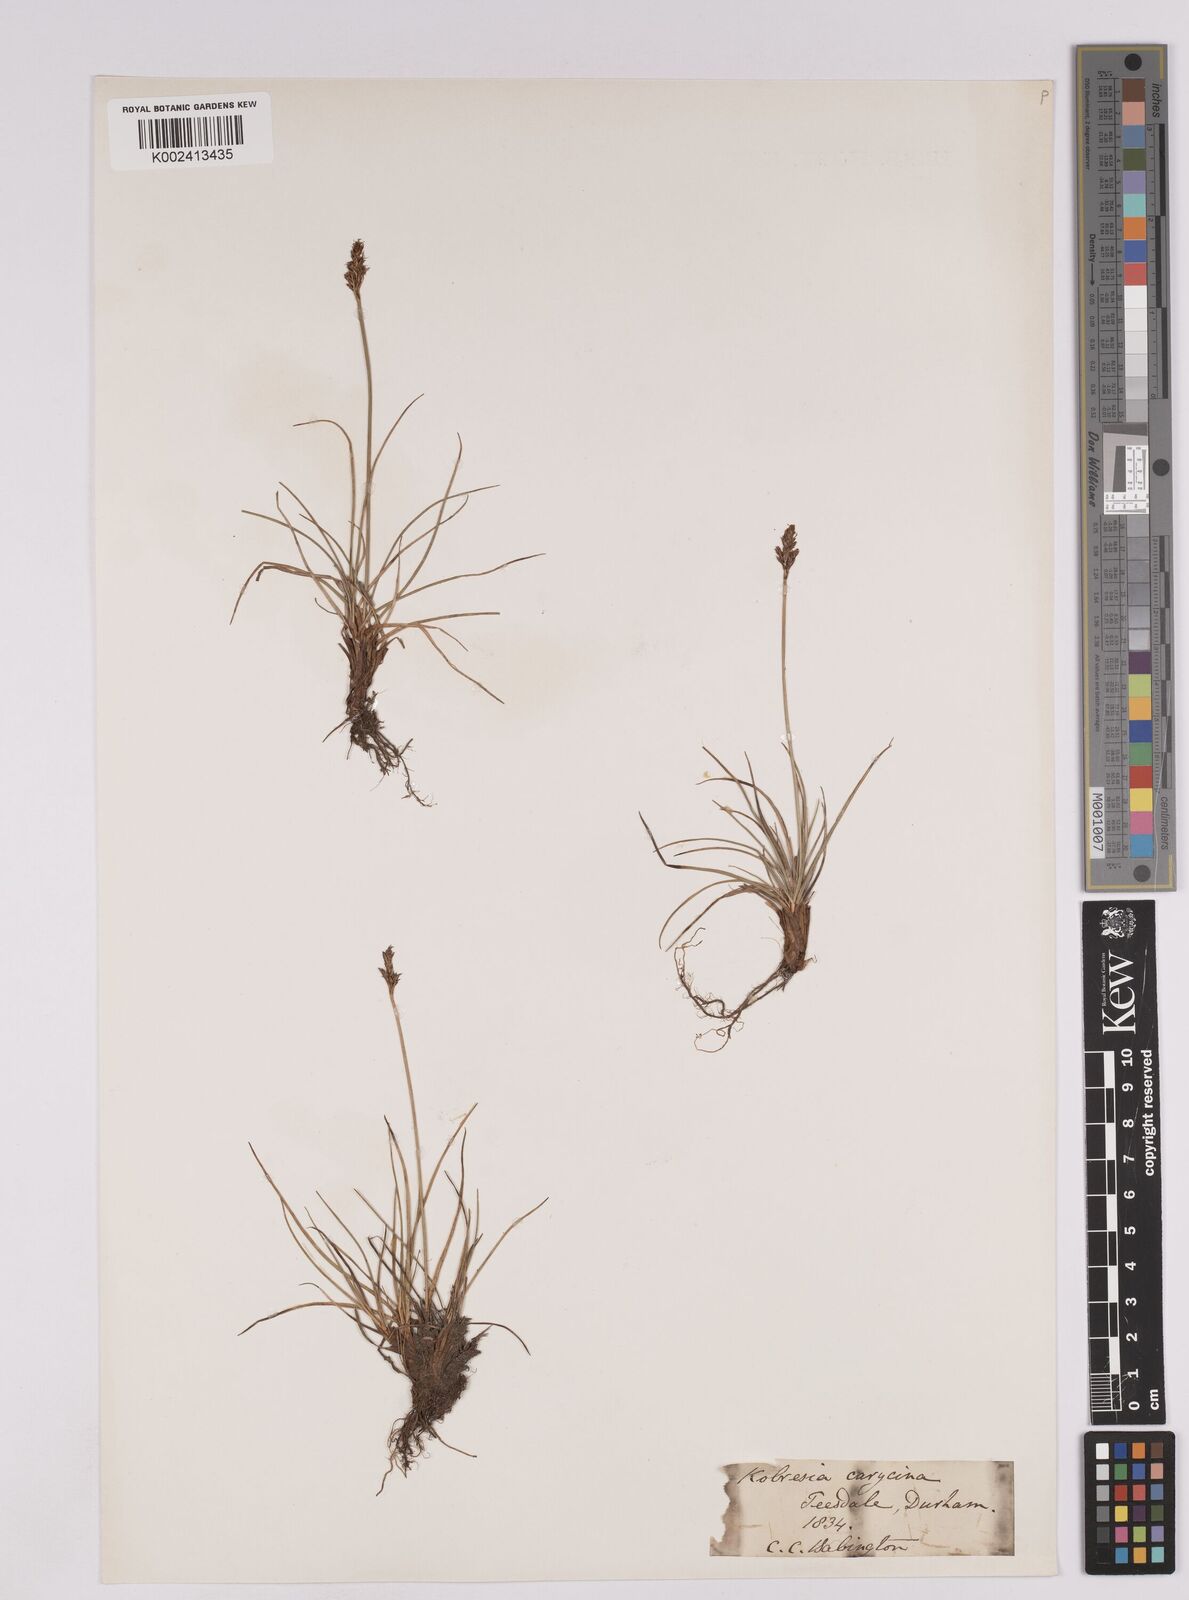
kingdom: Plantae
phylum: Tracheophyta
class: Liliopsida
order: Poales
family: Cyperaceae
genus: Carex
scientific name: Carex simpliciuscula
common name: Simple bog sedge
